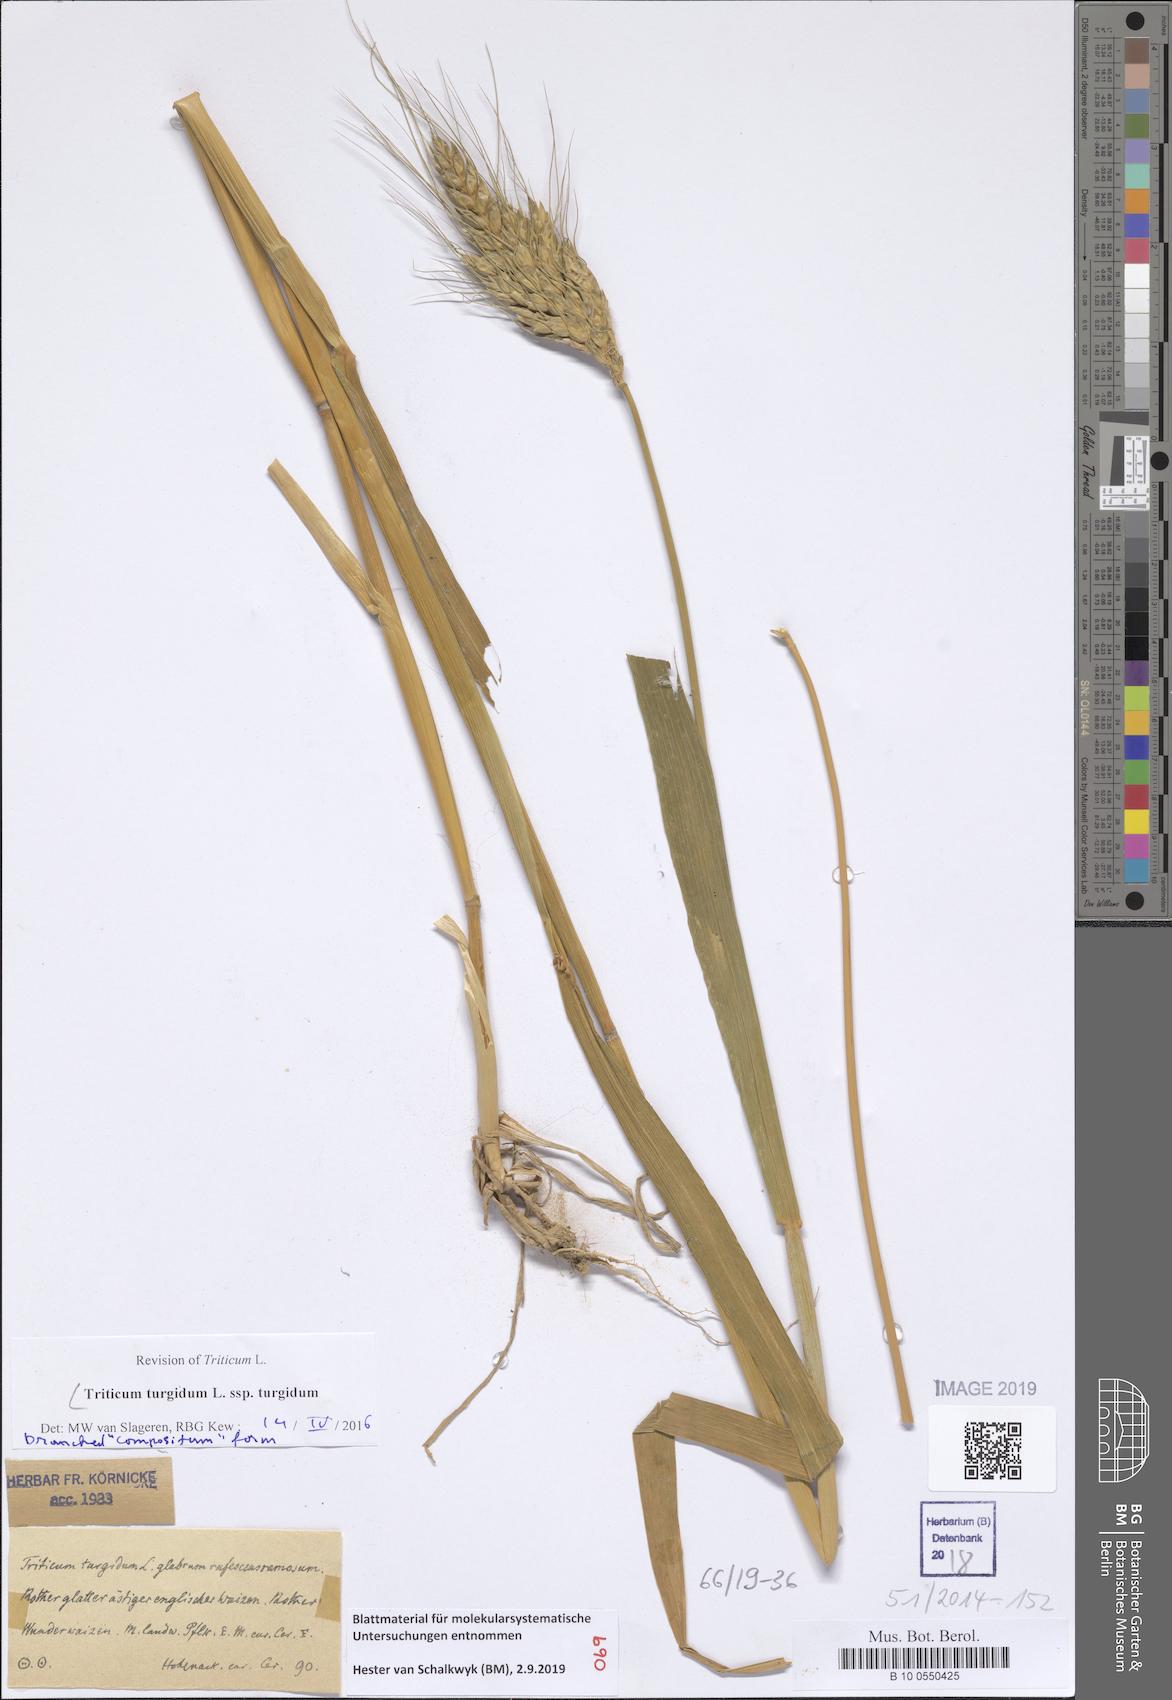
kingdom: Plantae
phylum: Tracheophyta
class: Liliopsida
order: Poales
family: Poaceae
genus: Triticum
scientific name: Triticum turgidum
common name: Rivet wheat
